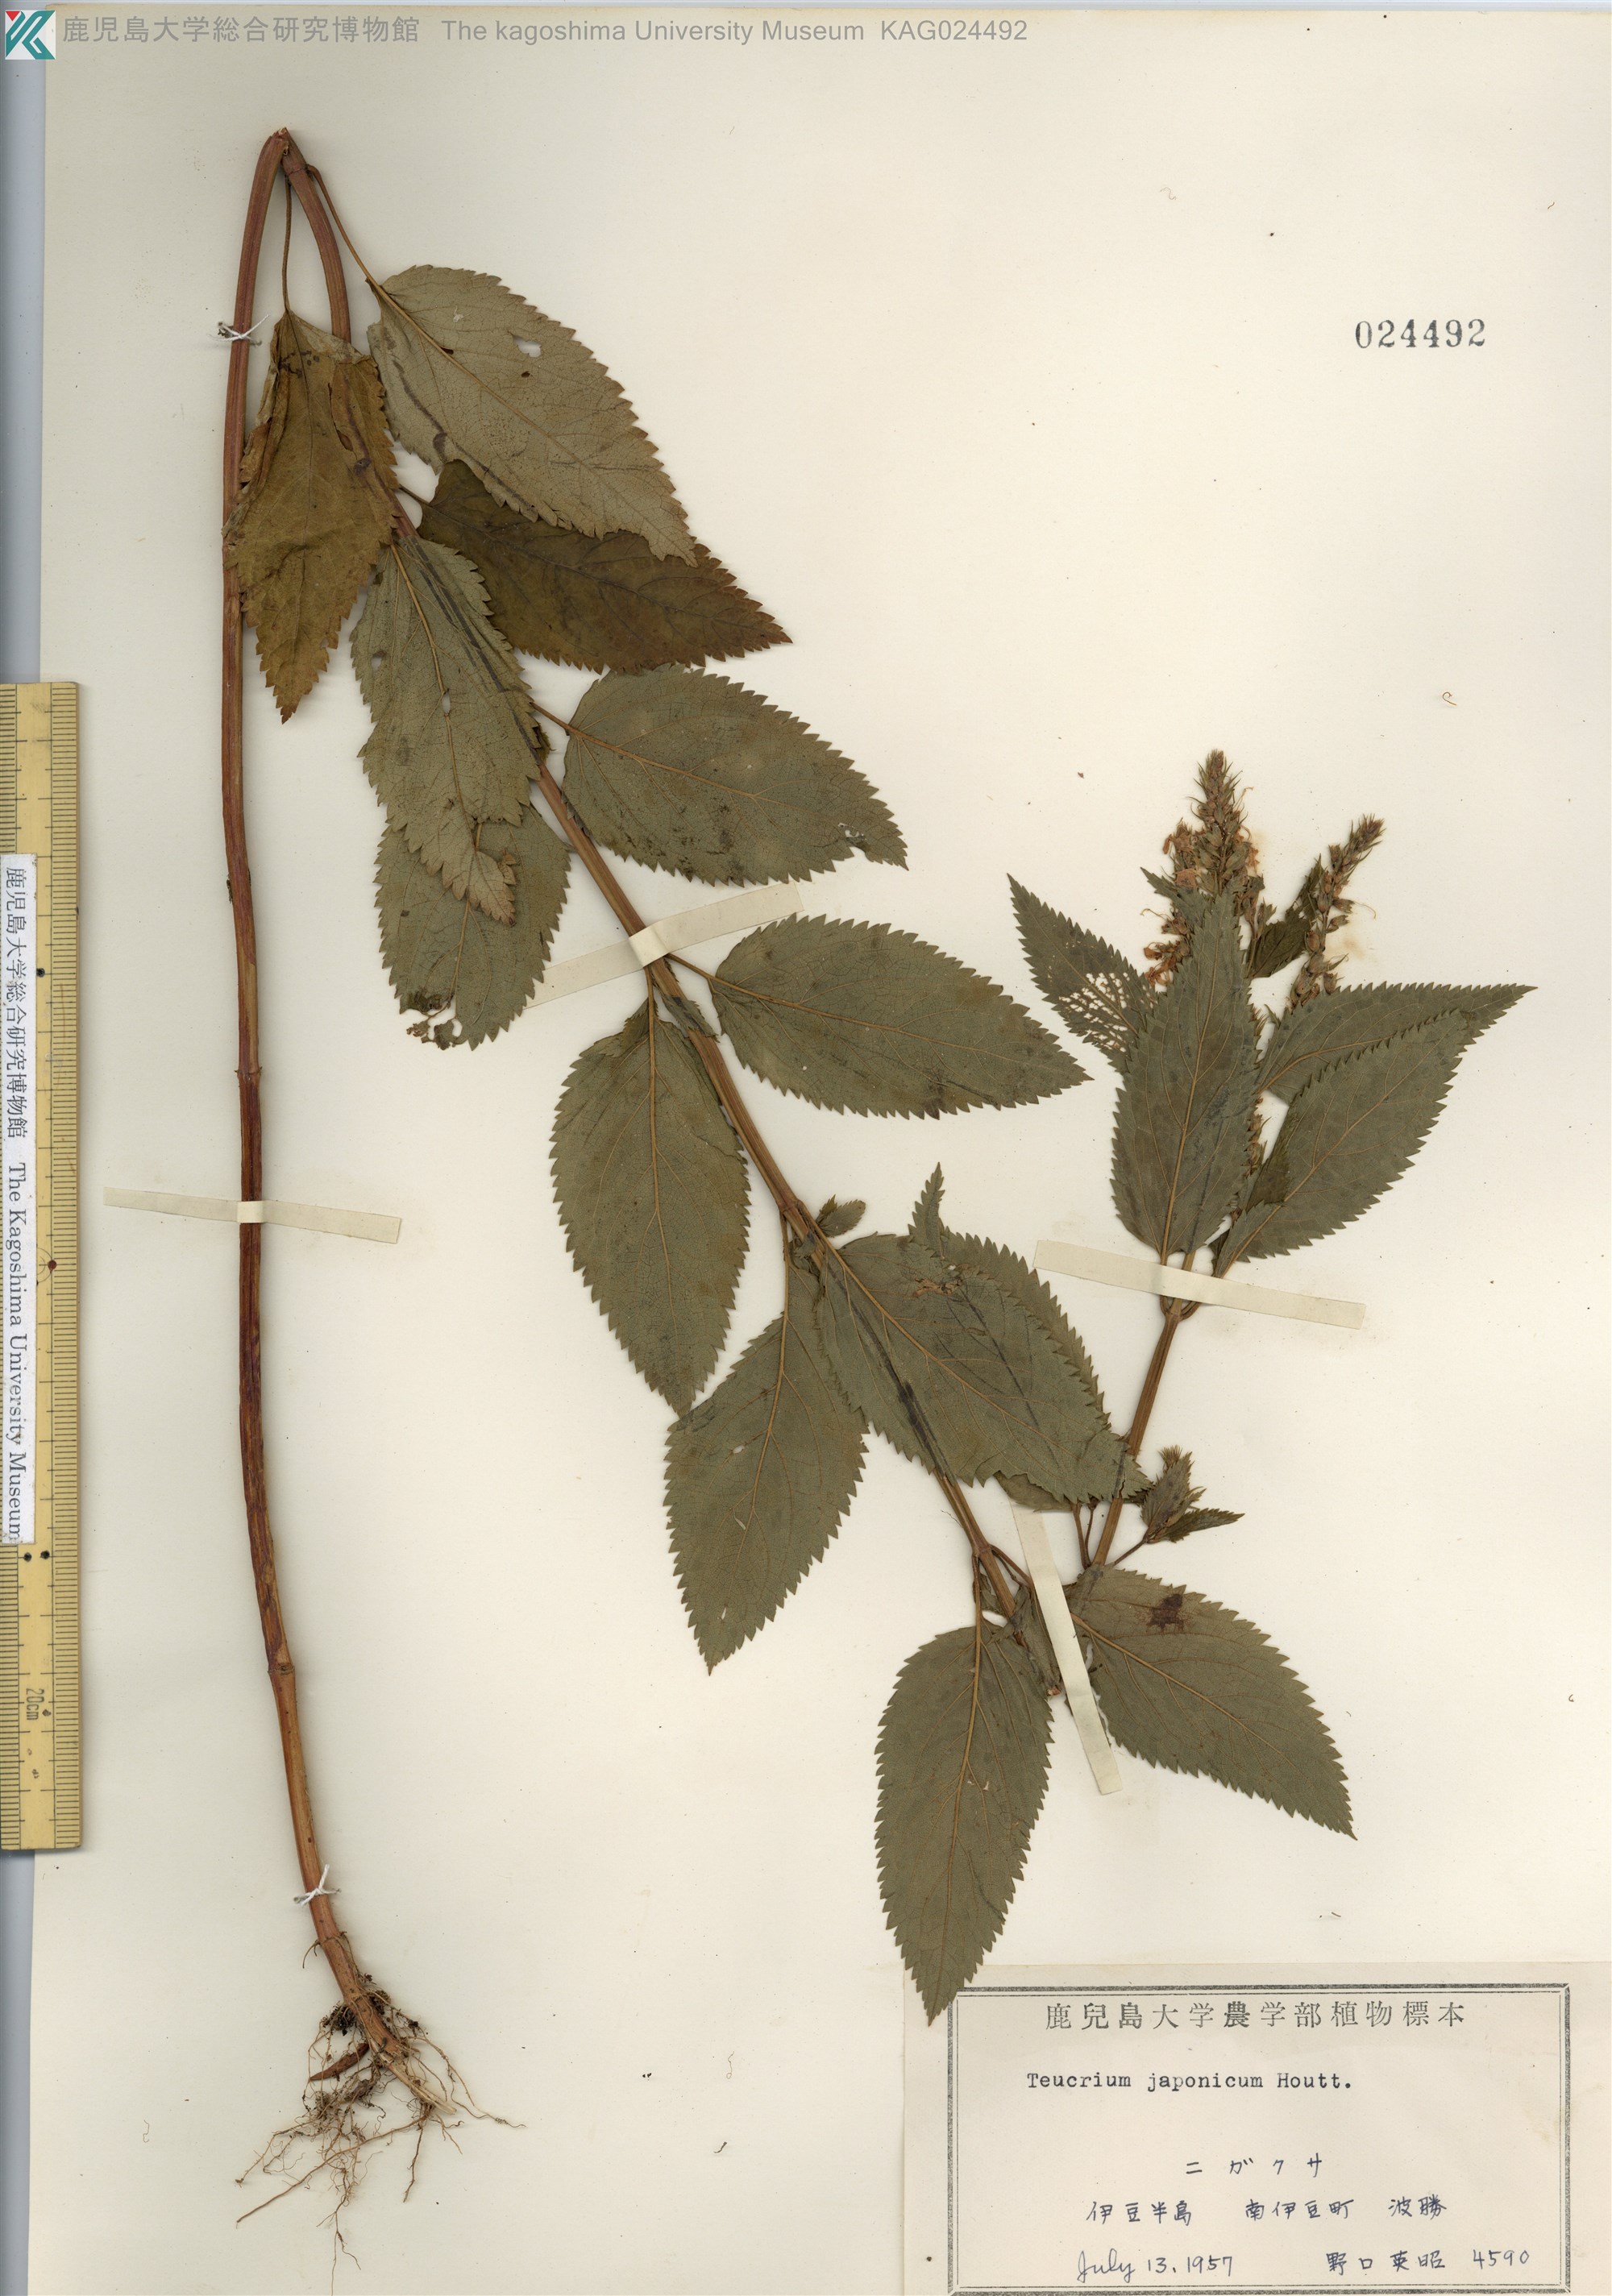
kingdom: Plantae
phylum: Tracheophyta
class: Magnoliopsida
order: Lamiales
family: Lamiaceae
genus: Teucrium
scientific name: Teucrium japonicum
